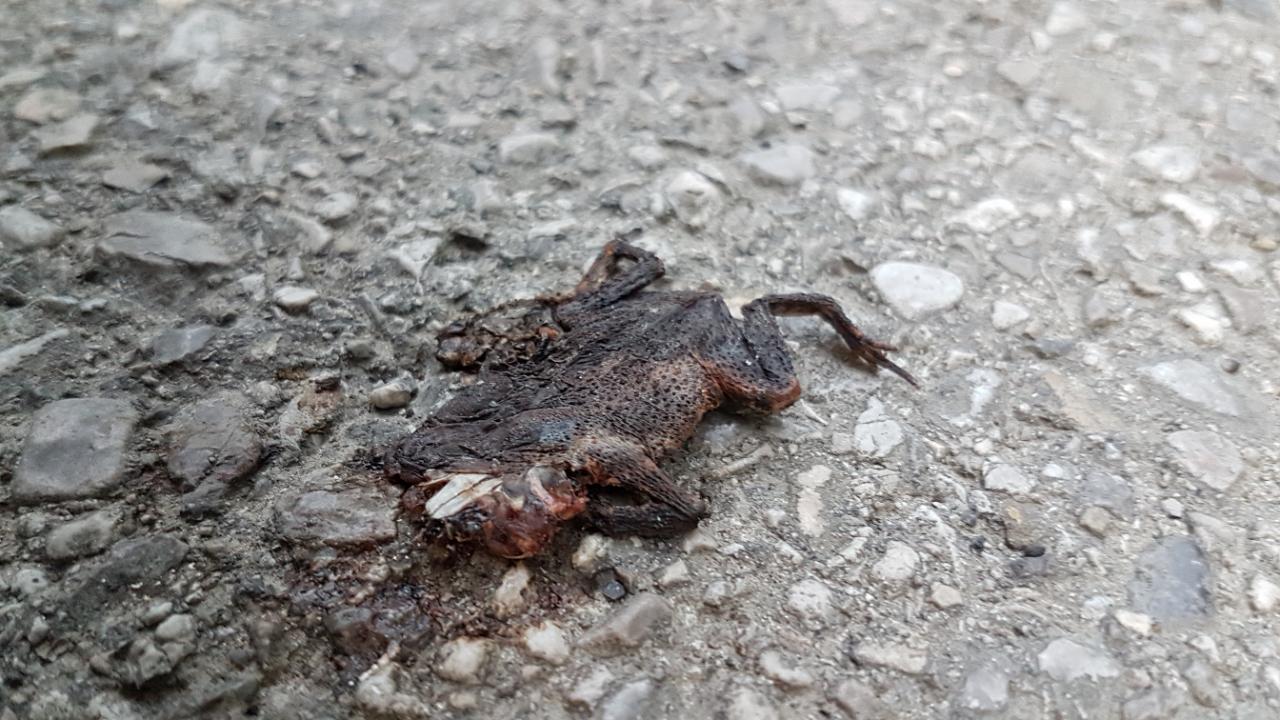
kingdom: Animalia
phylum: Chordata
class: Amphibia
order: Anura
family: Bufonidae
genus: Bufo
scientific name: Bufo bufo
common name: Common toad
